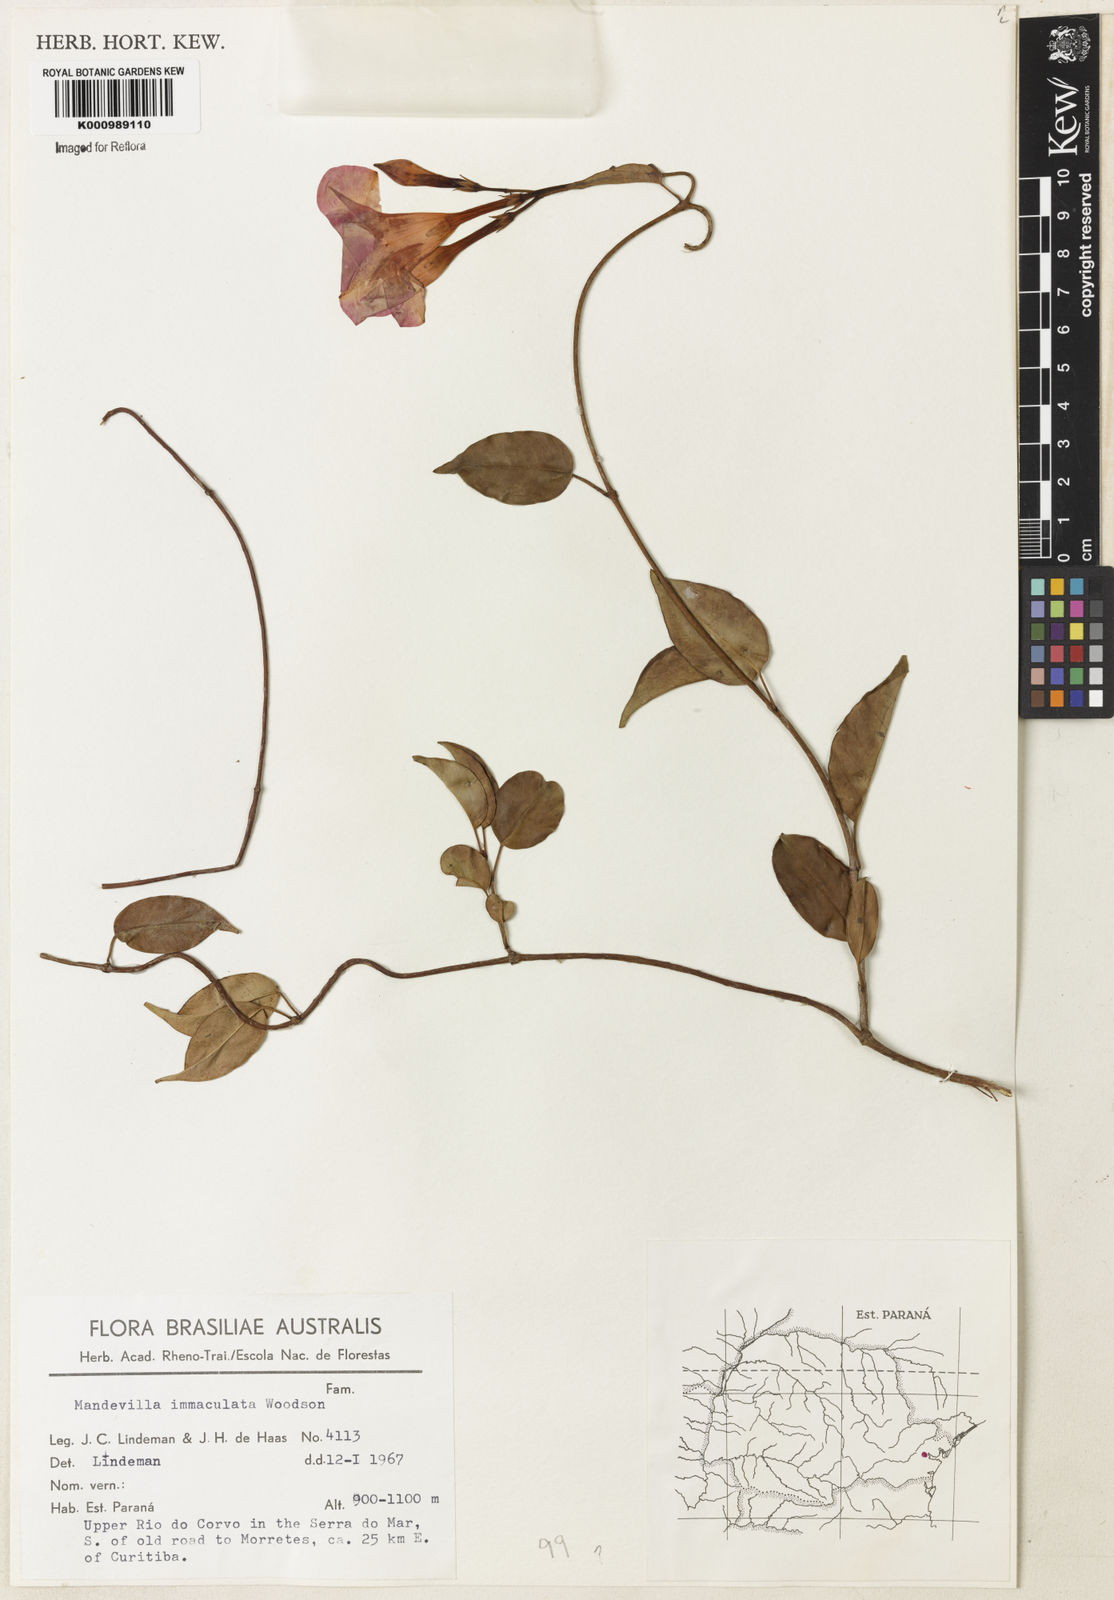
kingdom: Plantae
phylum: Tracheophyta
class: Magnoliopsida
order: Gentianales
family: Apocynaceae
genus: Mandevilla
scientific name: Mandevilla immaculata
